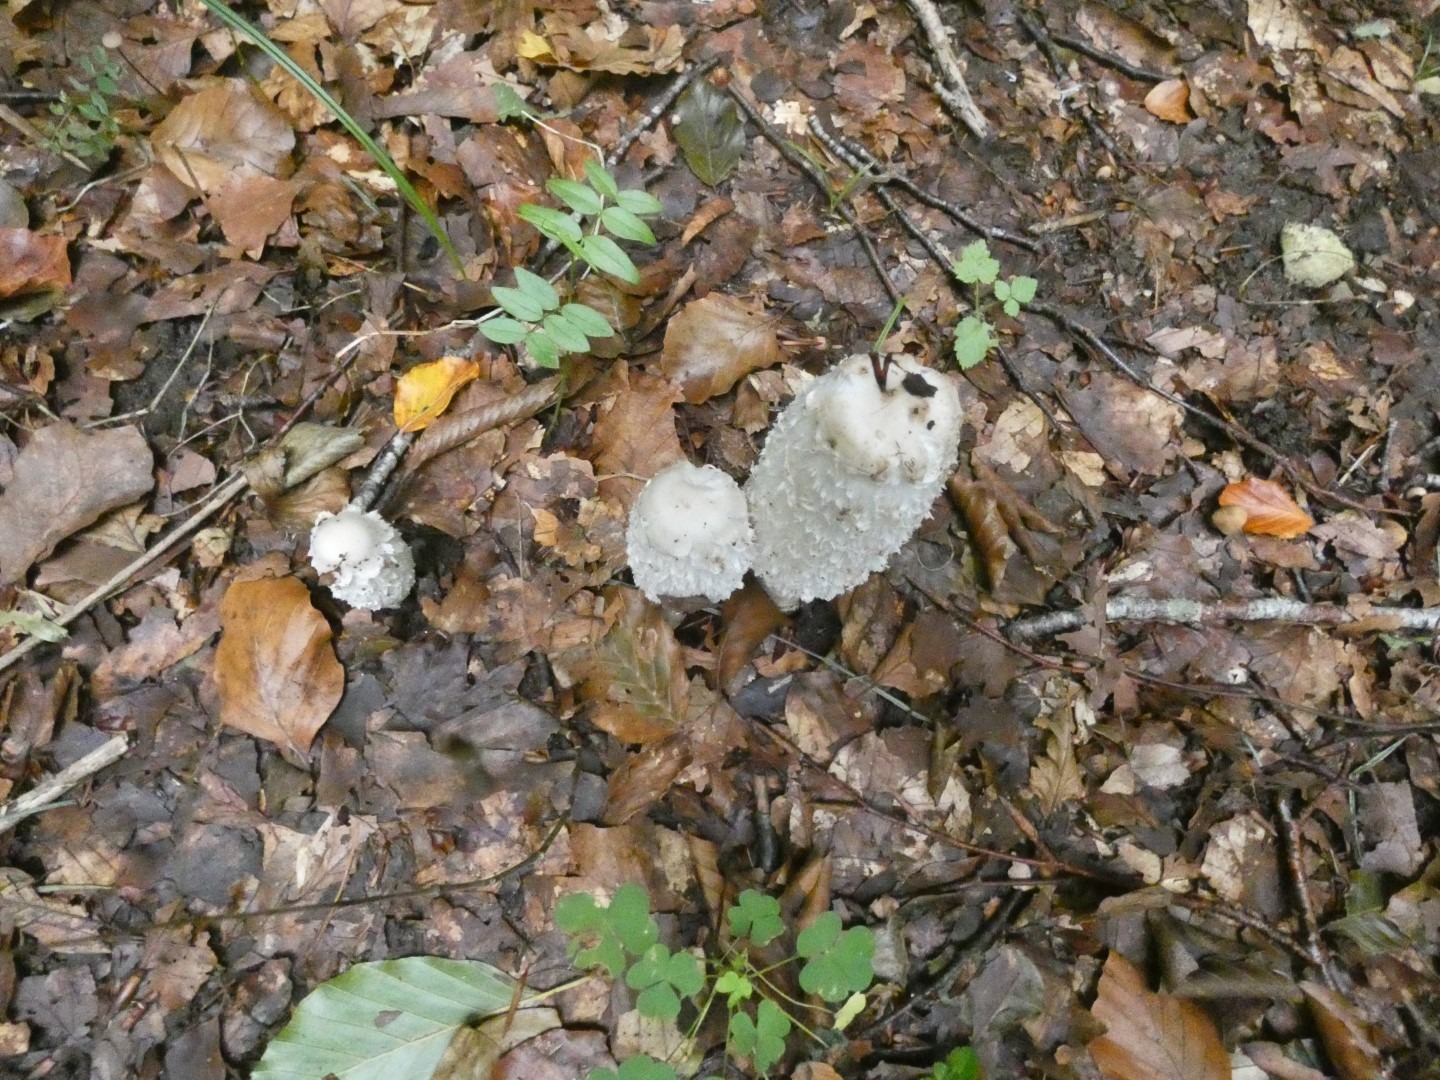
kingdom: Fungi
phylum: Basidiomycota
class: Agaricomycetes
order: Agaricales
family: Agaricaceae
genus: Coprinus
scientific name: Coprinus comatus
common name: Stor parykhat
